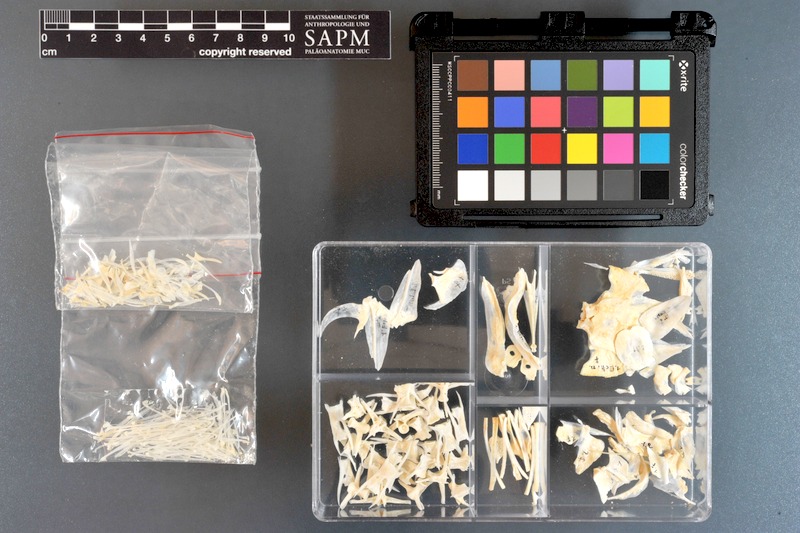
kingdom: Animalia
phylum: Chordata
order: Perciformes
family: Echeneidae
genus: Echeneis
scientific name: Echeneis naucrates
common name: Sharksucker
